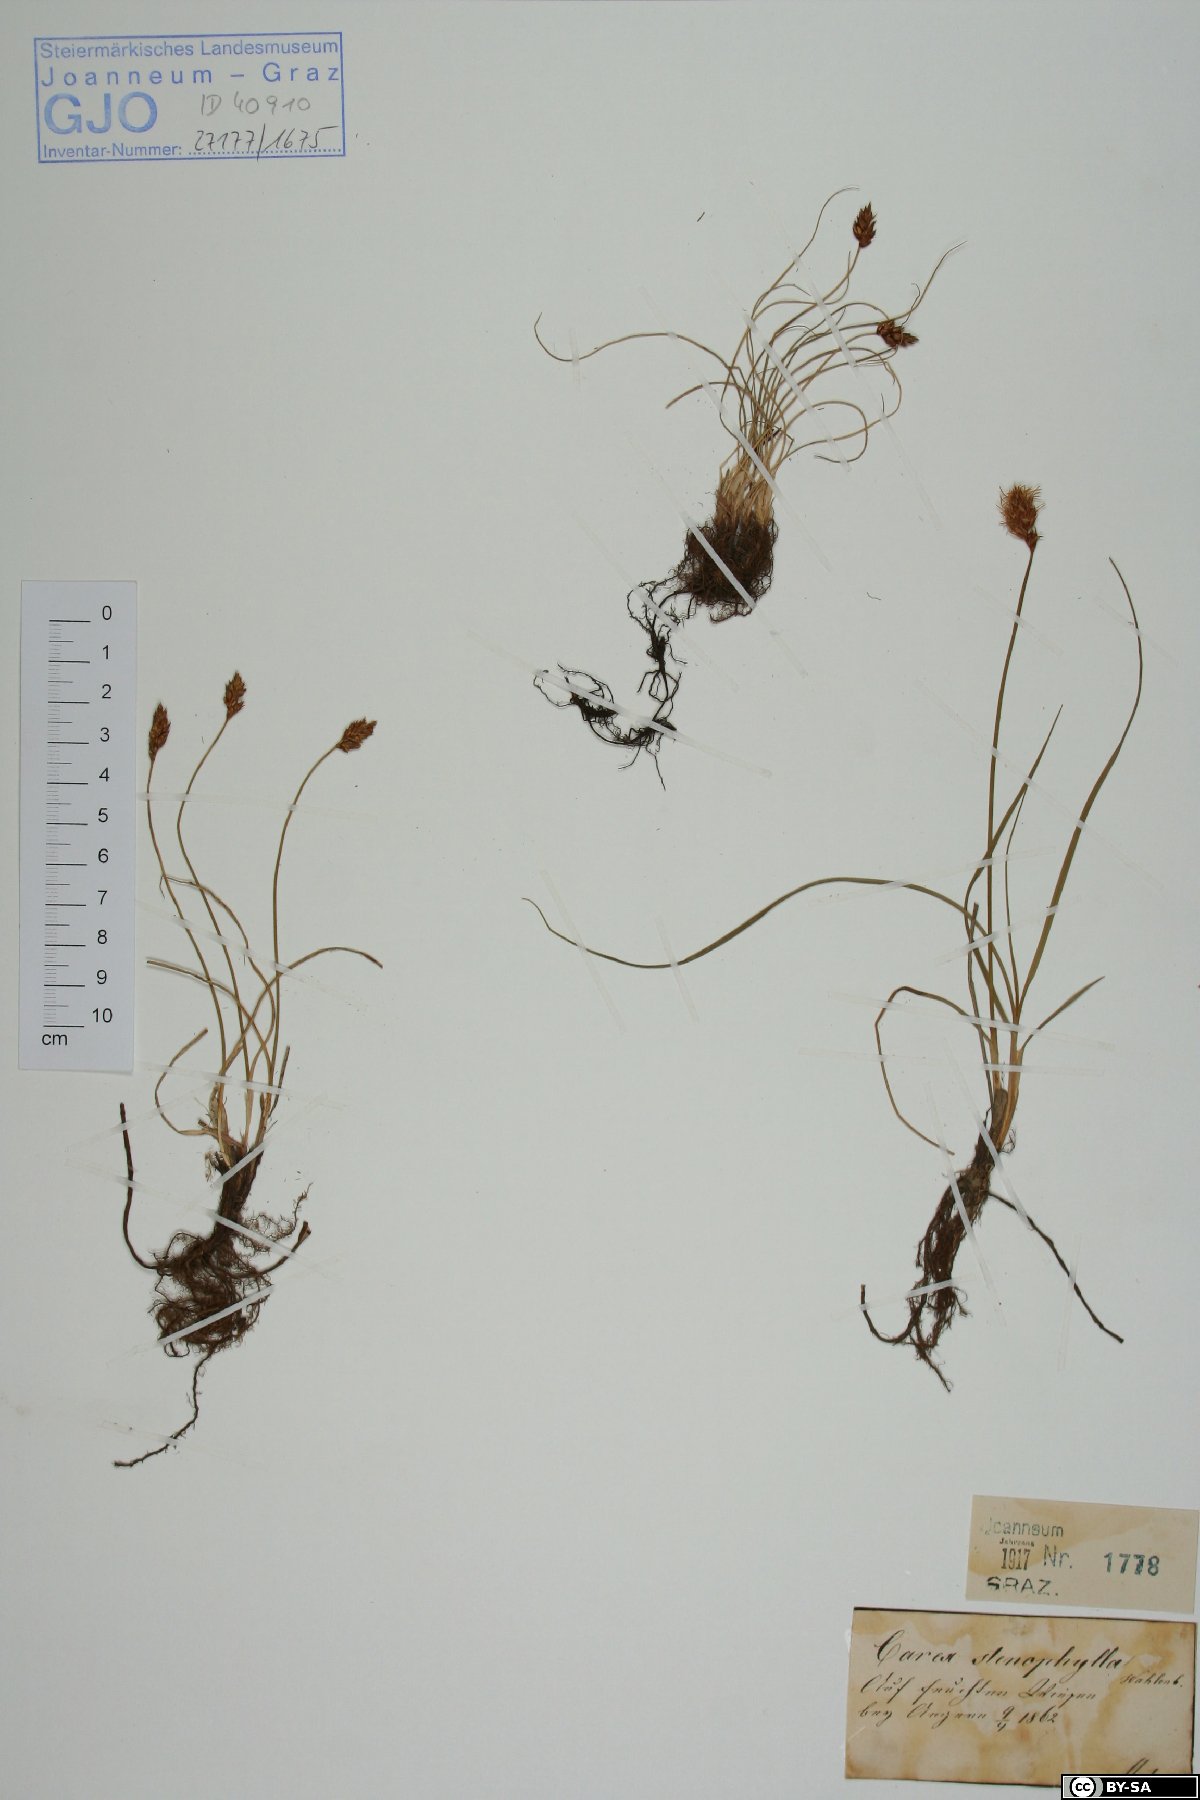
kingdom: Plantae
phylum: Tracheophyta
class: Liliopsida
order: Poales
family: Cyperaceae
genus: Carex
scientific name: Carex stenophylla
